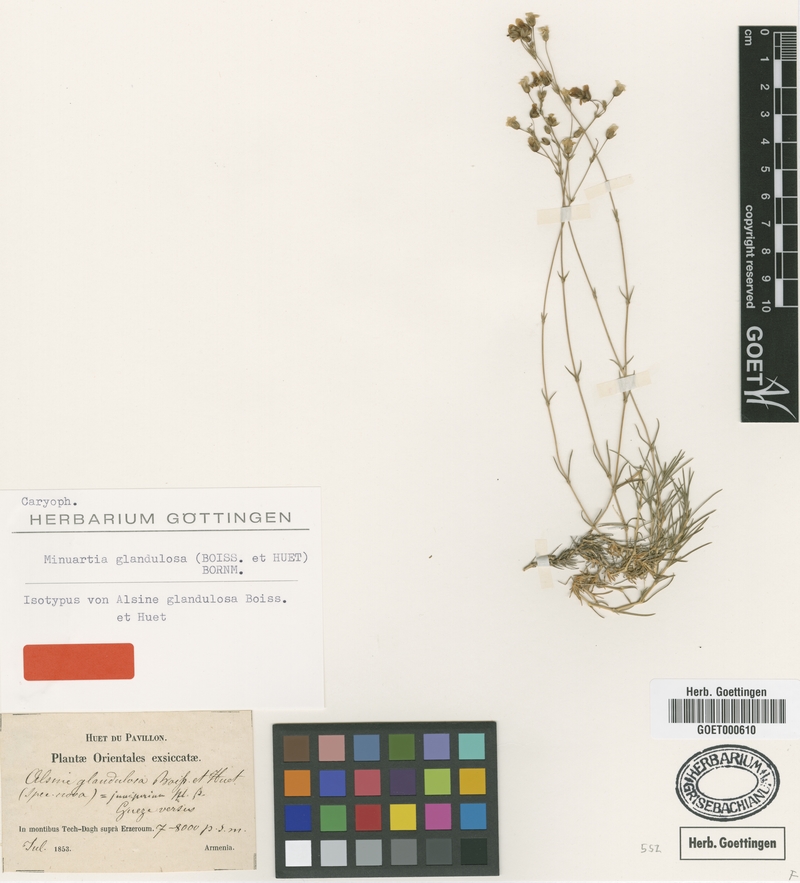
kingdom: Plantae
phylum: Tracheophyta
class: Magnoliopsida
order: Caryophyllales
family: Caryophyllaceae
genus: Sabulina
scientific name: Sabulina glandulosa
